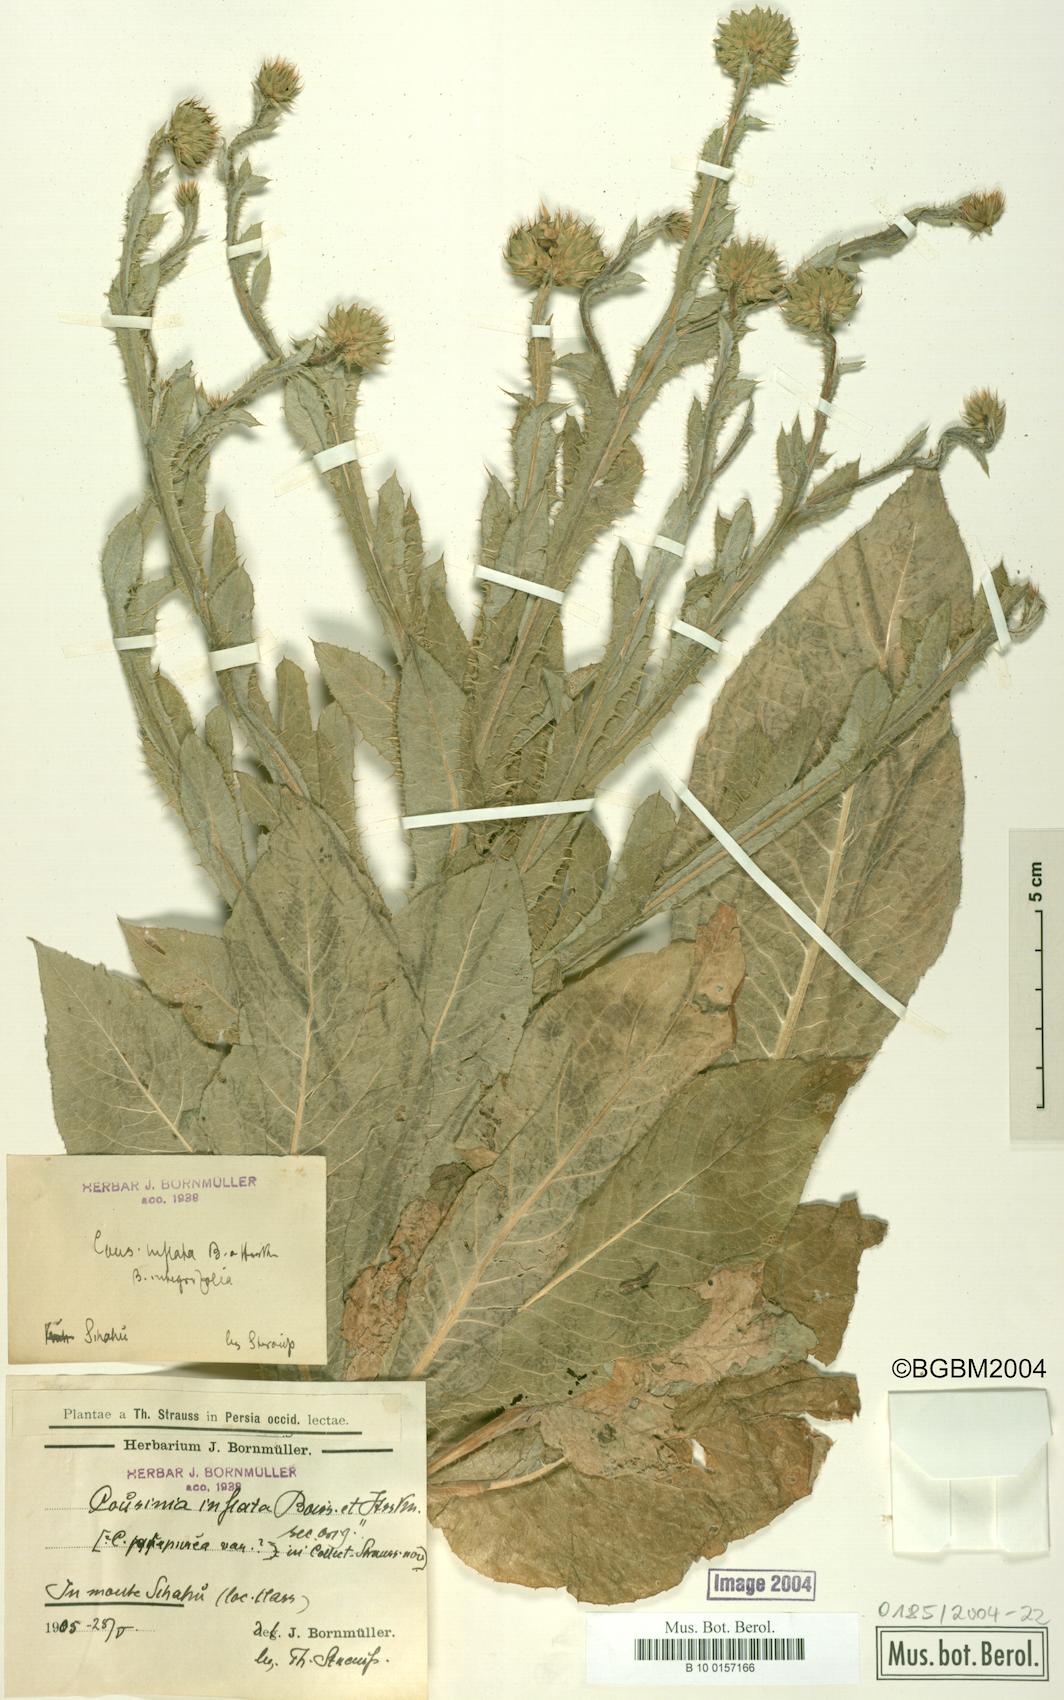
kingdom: Plantae
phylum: Tracheophyta
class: Magnoliopsida
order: Asterales
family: Asteraceae
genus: Cousinia
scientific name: Cousinia inflata
